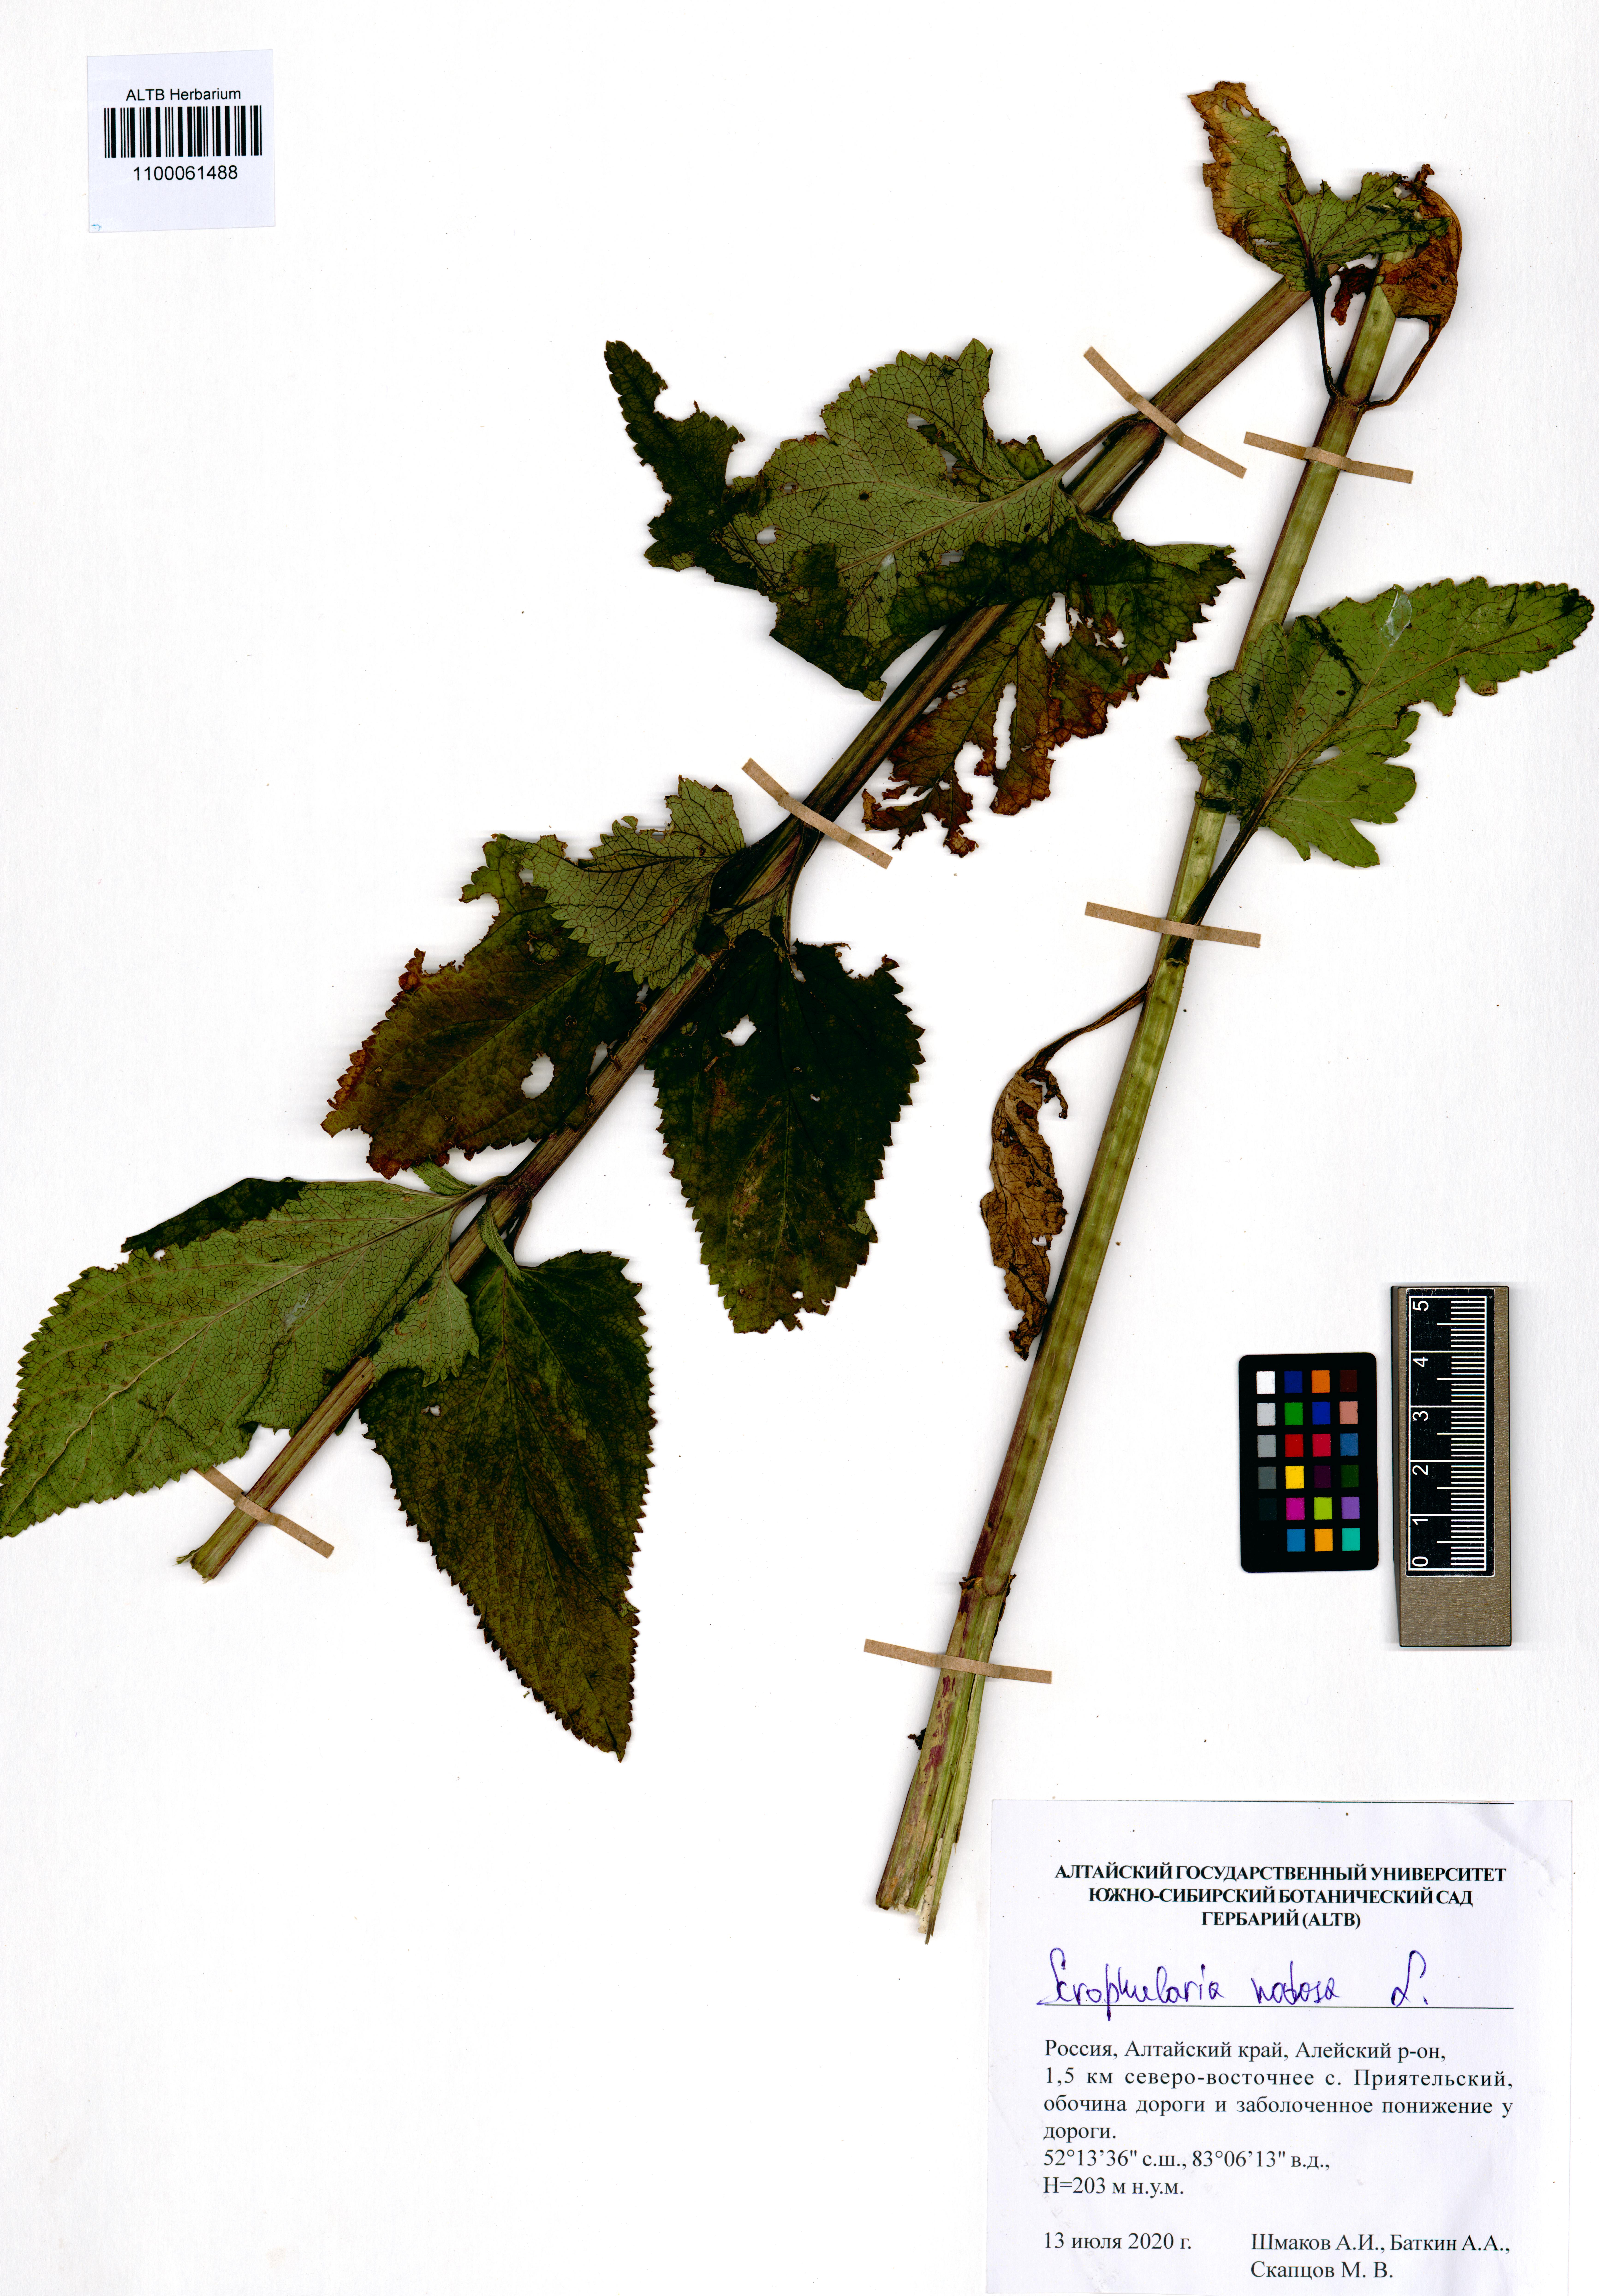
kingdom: Plantae
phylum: Tracheophyta
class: Magnoliopsida
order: Lamiales
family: Scrophulariaceae
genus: Scrophularia
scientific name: Scrophularia nodosa
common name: Common figwort
